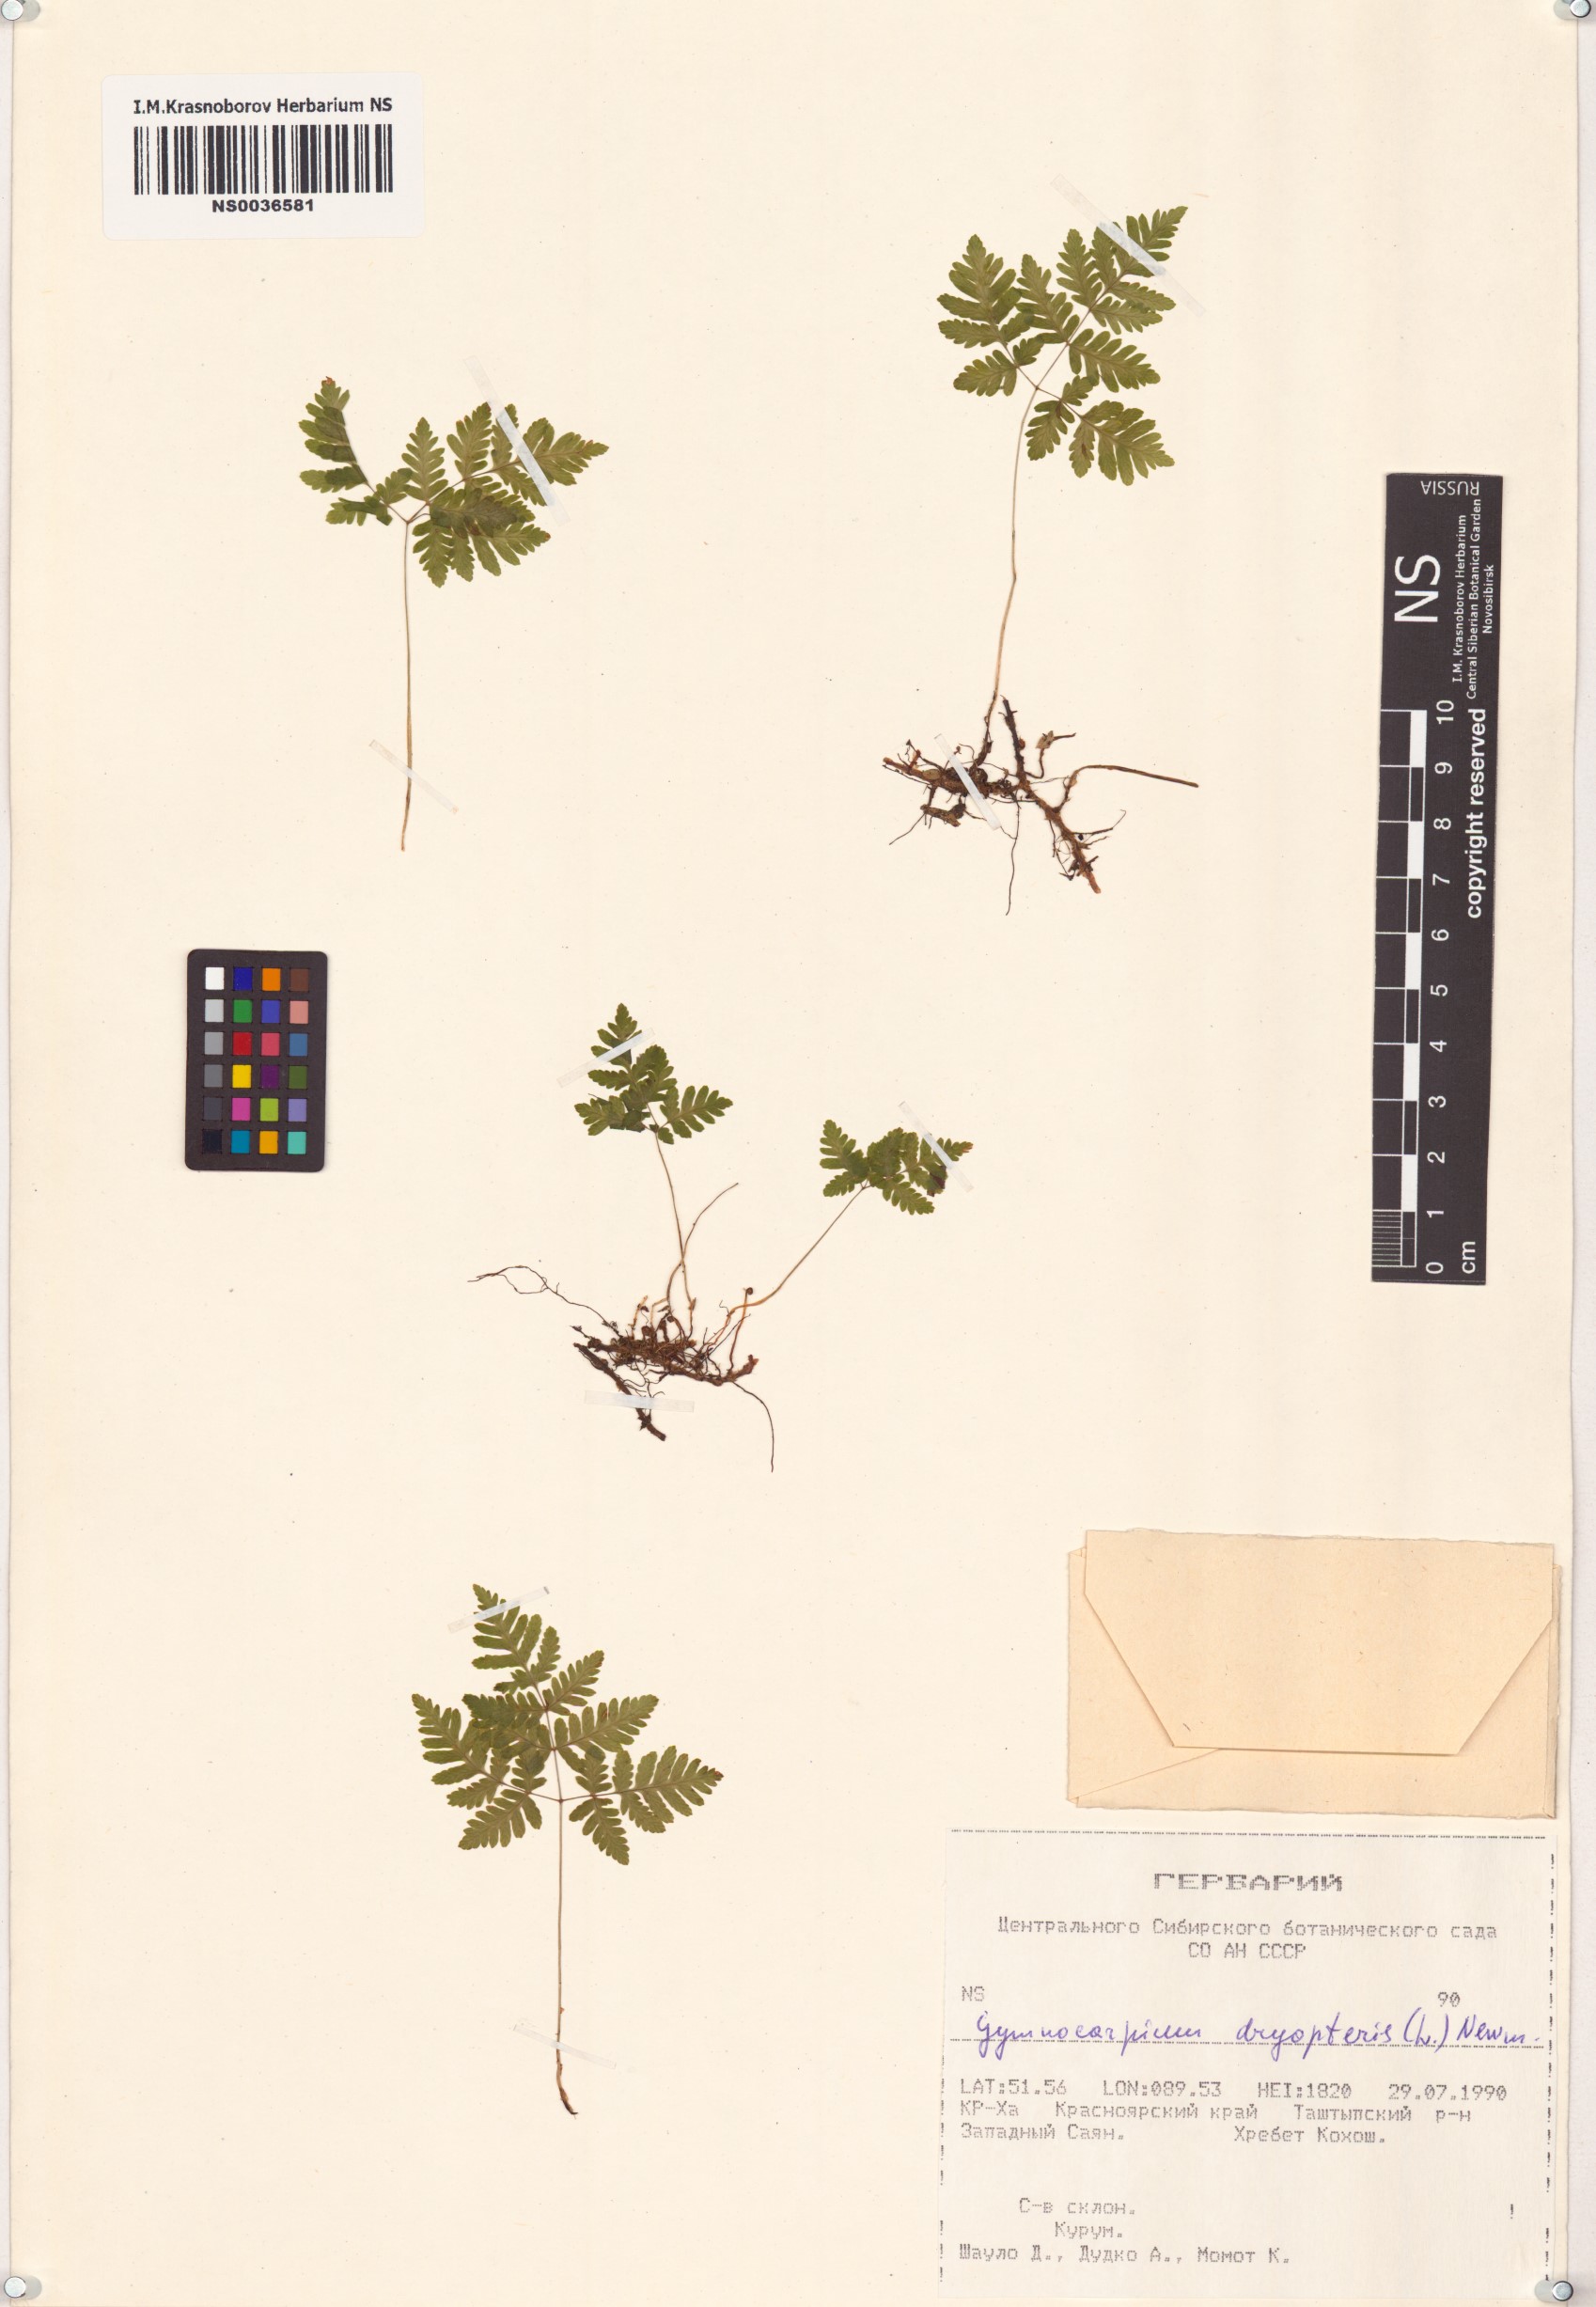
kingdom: Plantae
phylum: Tracheophyta
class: Polypodiopsida
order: Polypodiales
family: Cystopteridaceae
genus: Gymnocarpium
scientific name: Gymnocarpium dryopteris
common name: Oak fern
